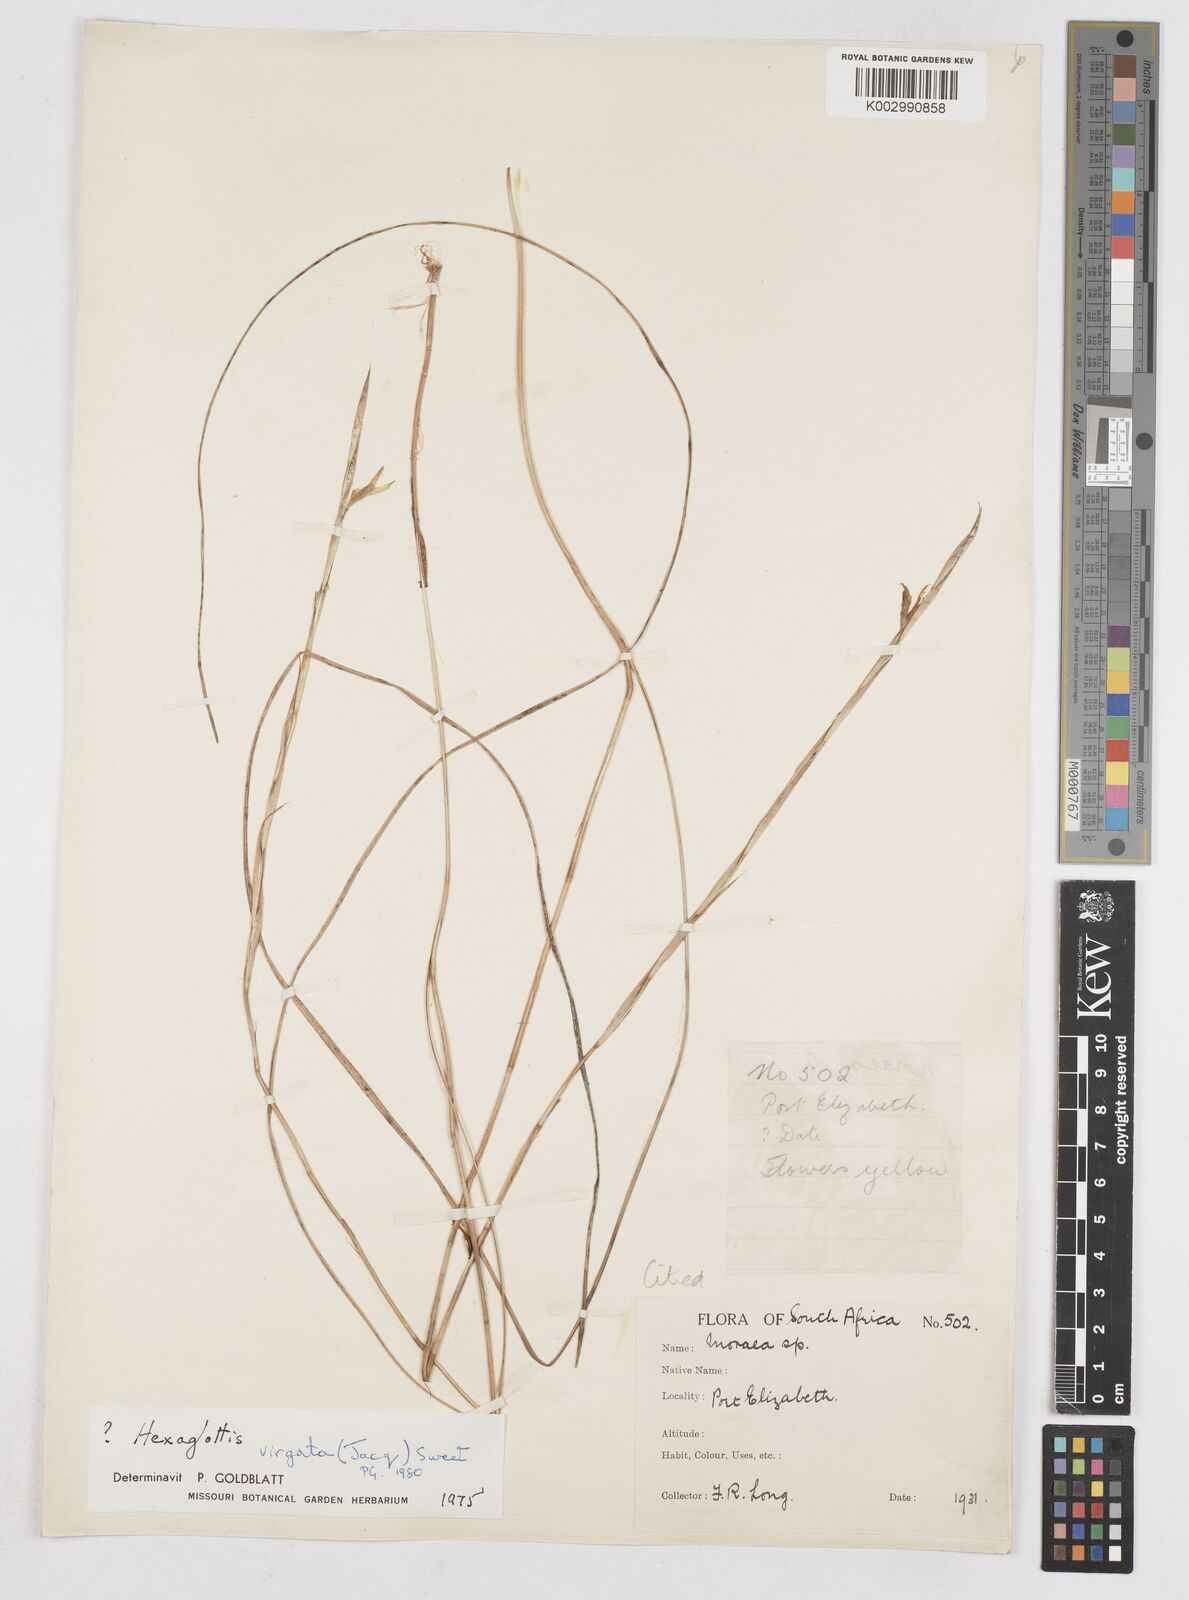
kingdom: Plantae
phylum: Tracheophyta
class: Liliopsida
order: Asparagales
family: Iridaceae
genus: Moraea
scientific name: Moraea virgata
